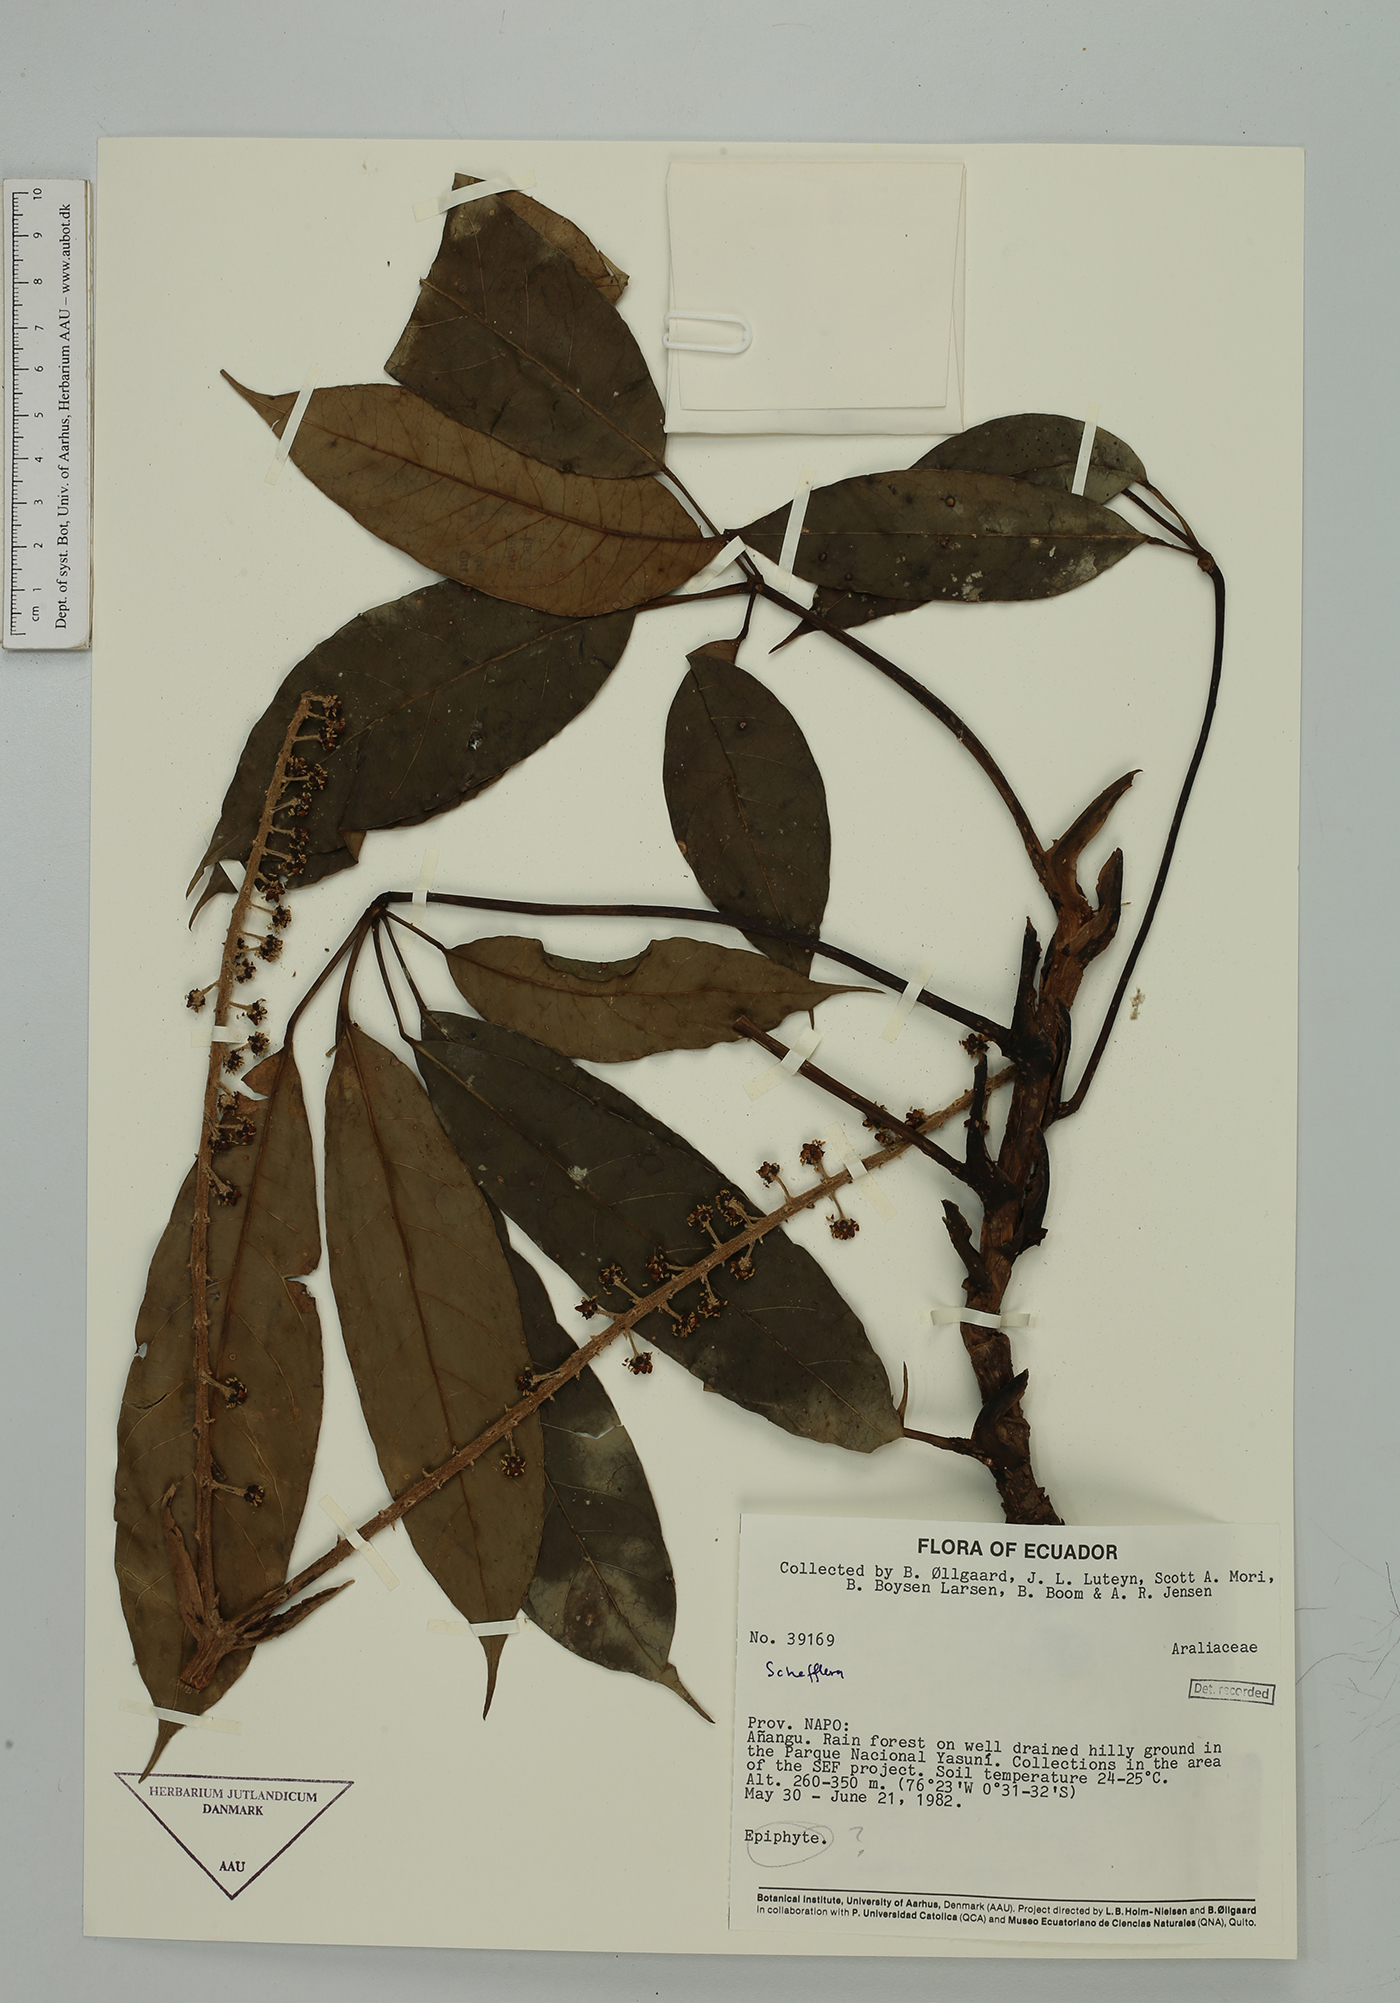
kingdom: Plantae
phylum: Tracheophyta
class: Magnoliopsida
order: Apiales
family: Araliaceae
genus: Sciodaphyllum
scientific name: Sciodaphyllum sprucei
